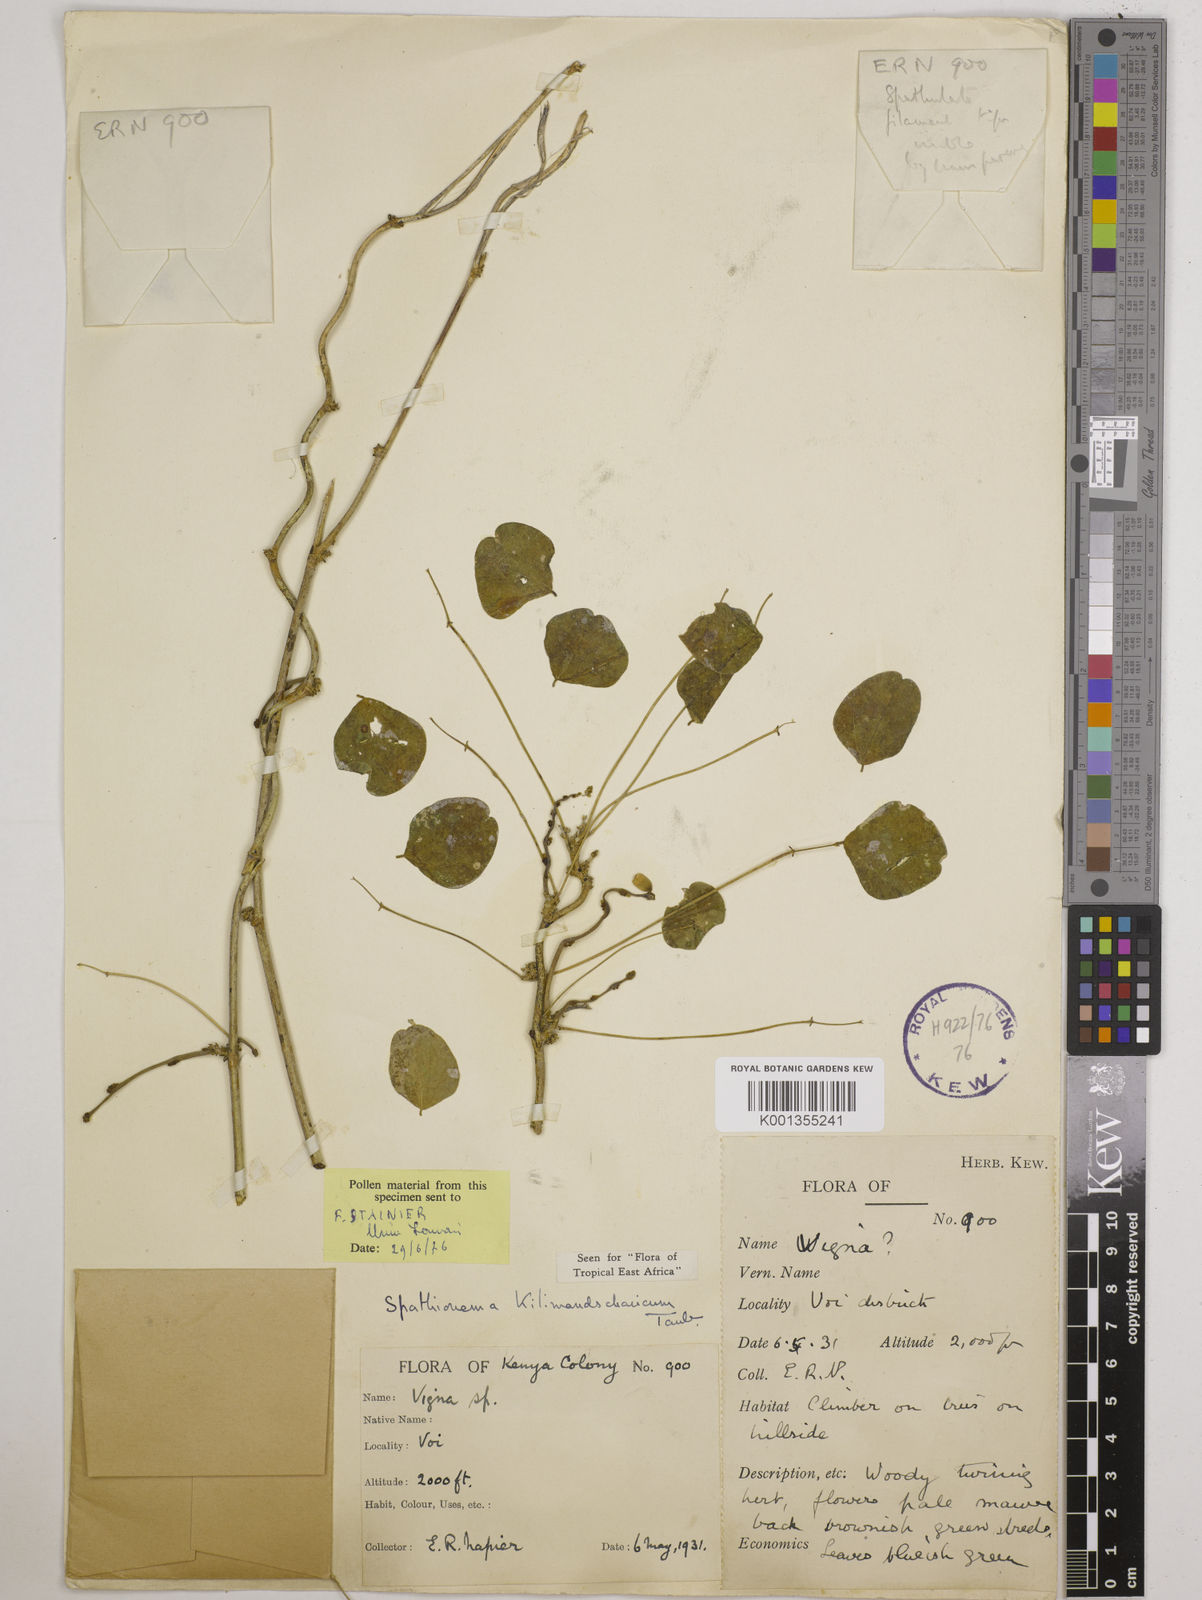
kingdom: Plantae
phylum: Tracheophyta
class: Magnoliopsida
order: Fabales
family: Fabaceae
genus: Spathionema
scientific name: Spathionema kilimandscharicum
